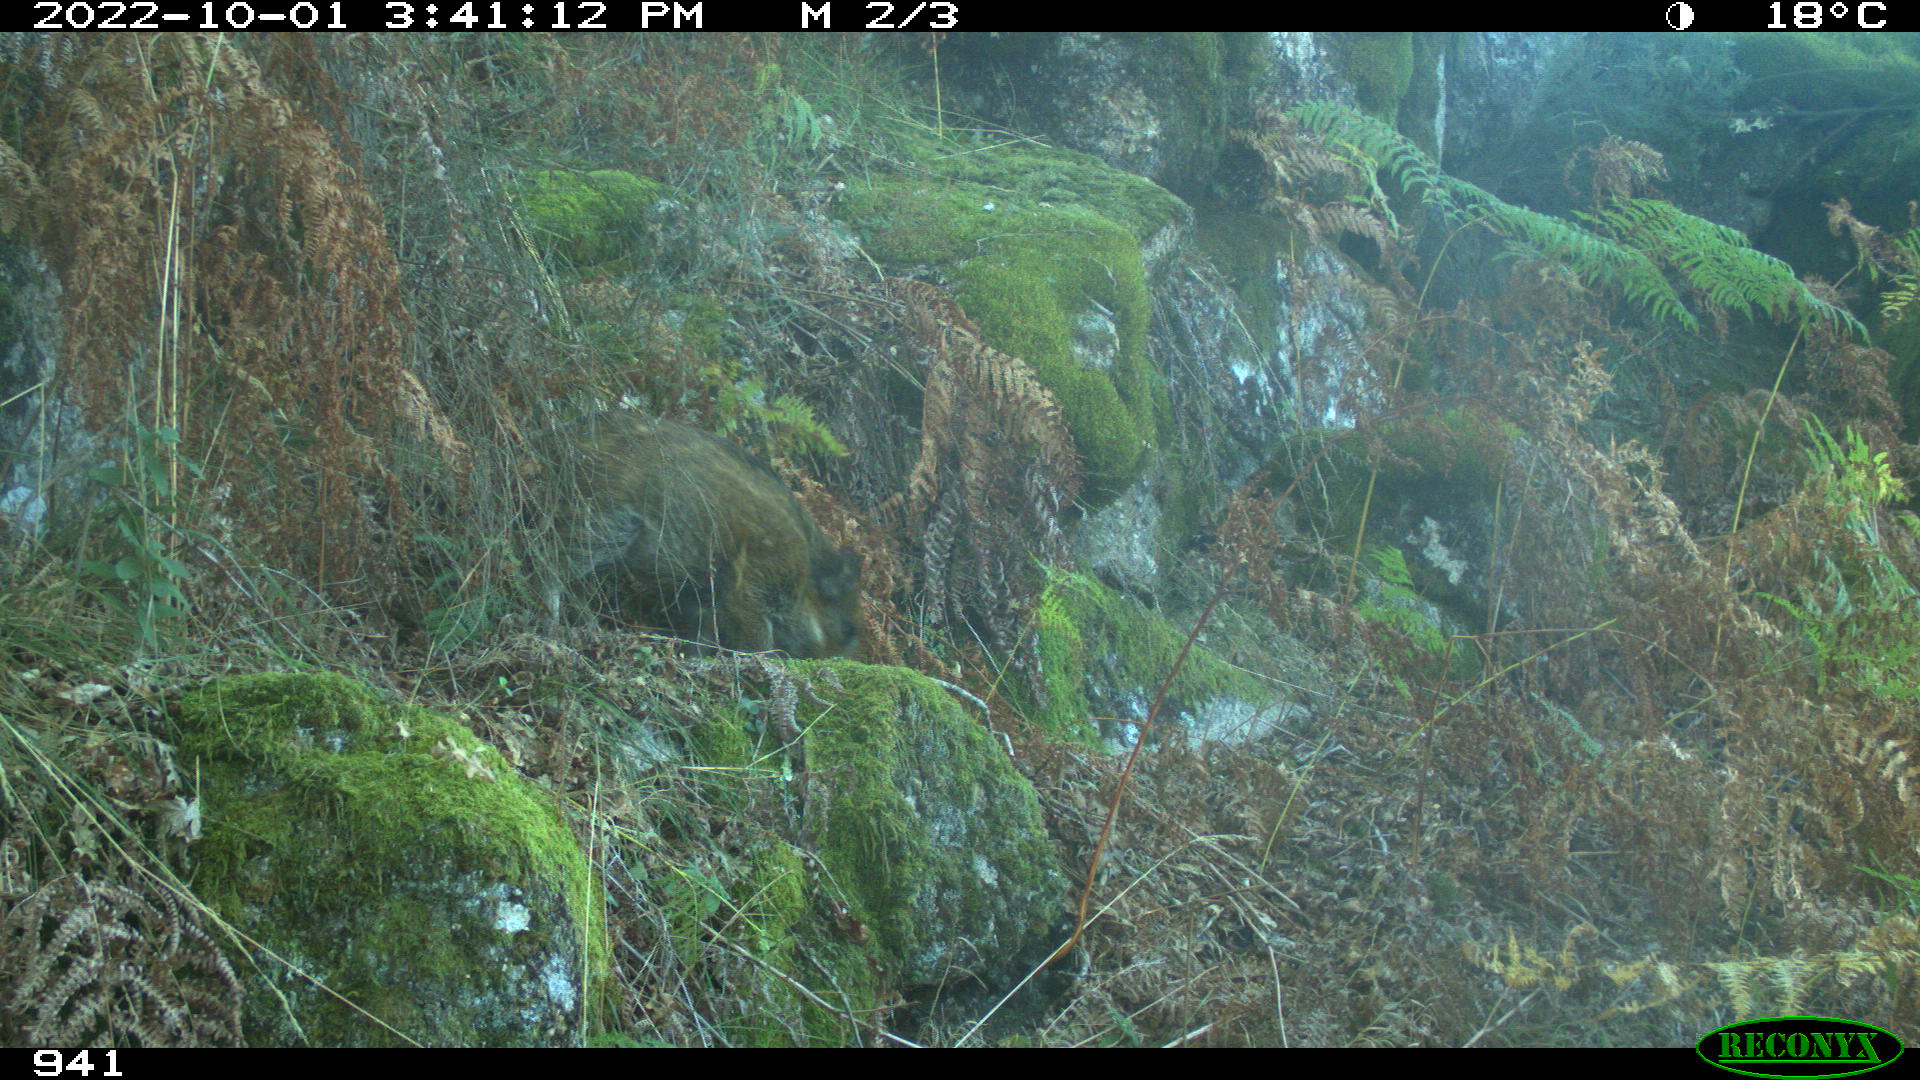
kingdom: Animalia
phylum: Chordata
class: Mammalia
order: Artiodactyla
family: Suidae
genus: Sus
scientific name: Sus scrofa
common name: Wild boar
